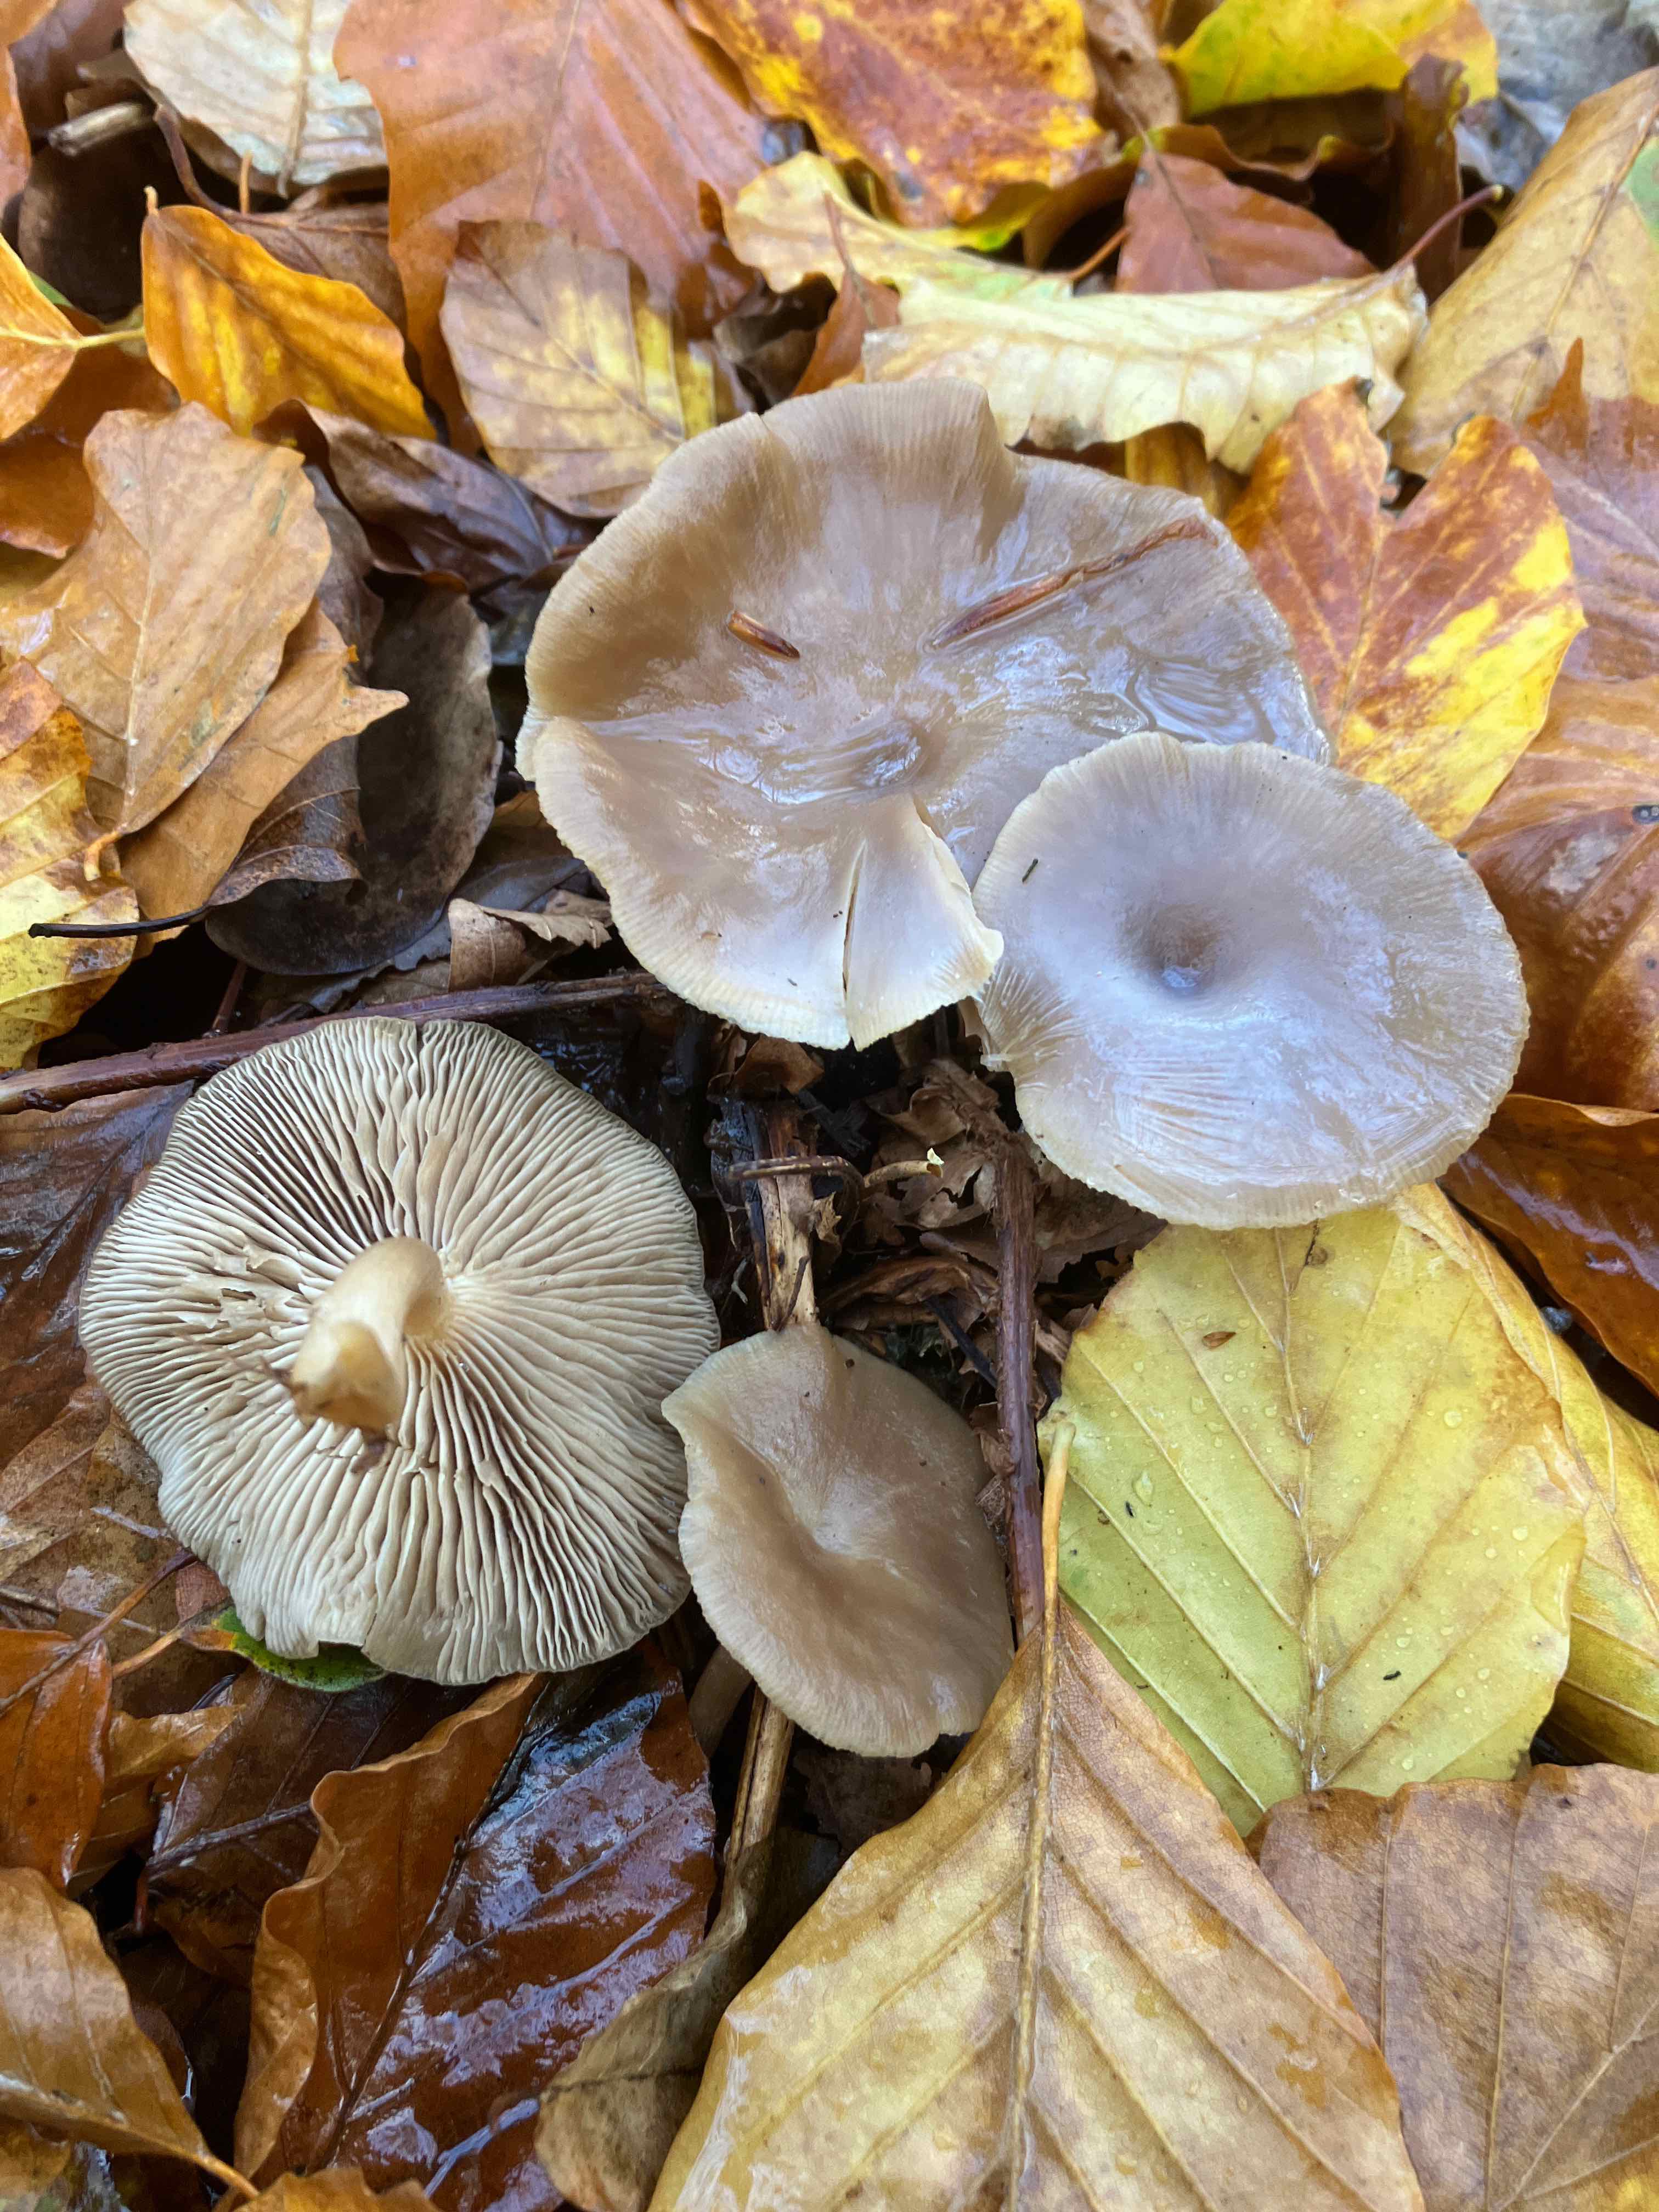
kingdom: Fungi
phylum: Basidiomycota
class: Agaricomycetes
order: Agaricales
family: Pseudoclitocybaceae
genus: Pseudoclitocybe
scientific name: Pseudoclitocybe cyathiformis
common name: almindelig bægertragthat
